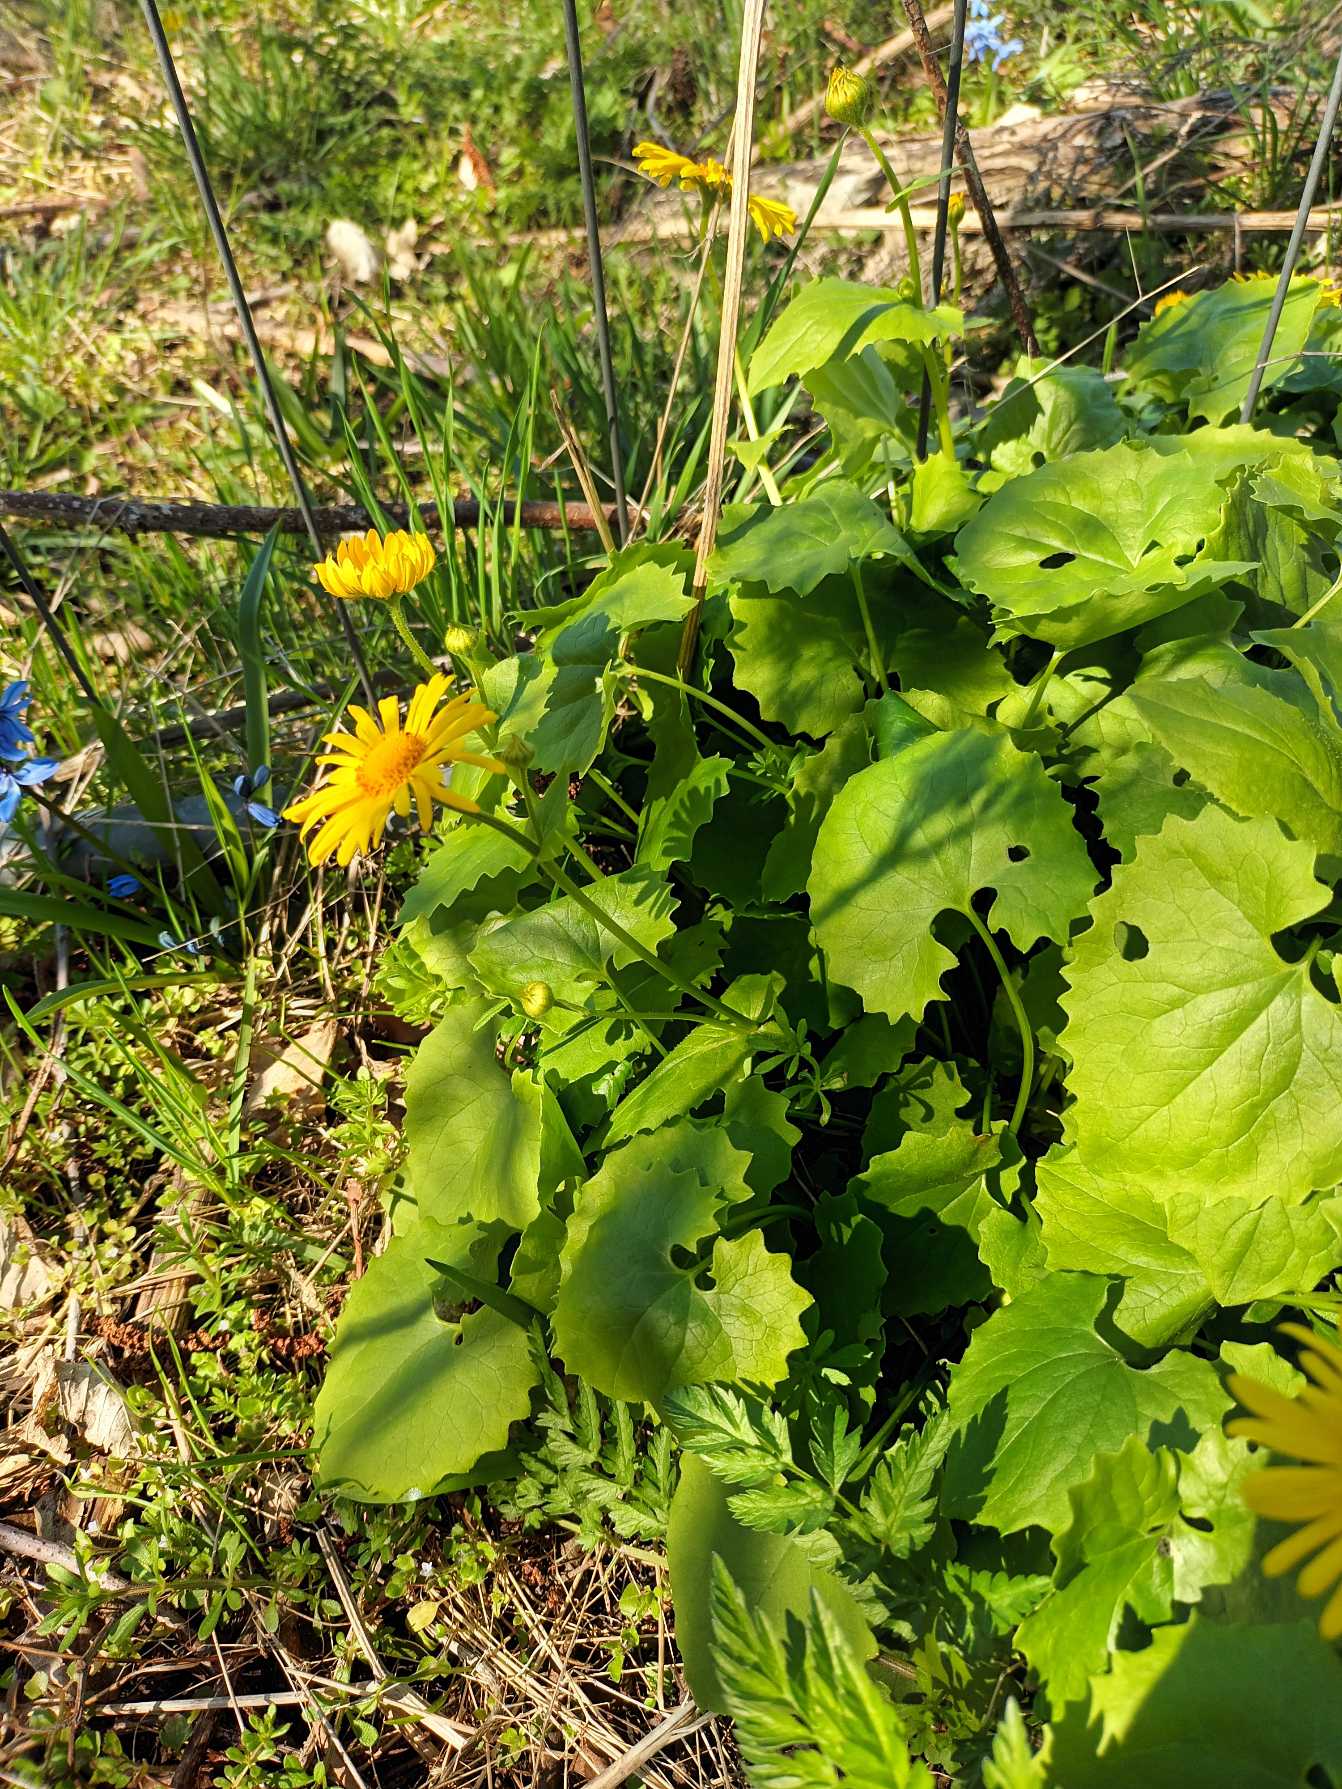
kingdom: Plantae
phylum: Tracheophyta
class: Magnoliopsida
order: Asterales
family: Asteraceae
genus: Doronicum
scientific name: Doronicum columnae
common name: Tue-gemserod
